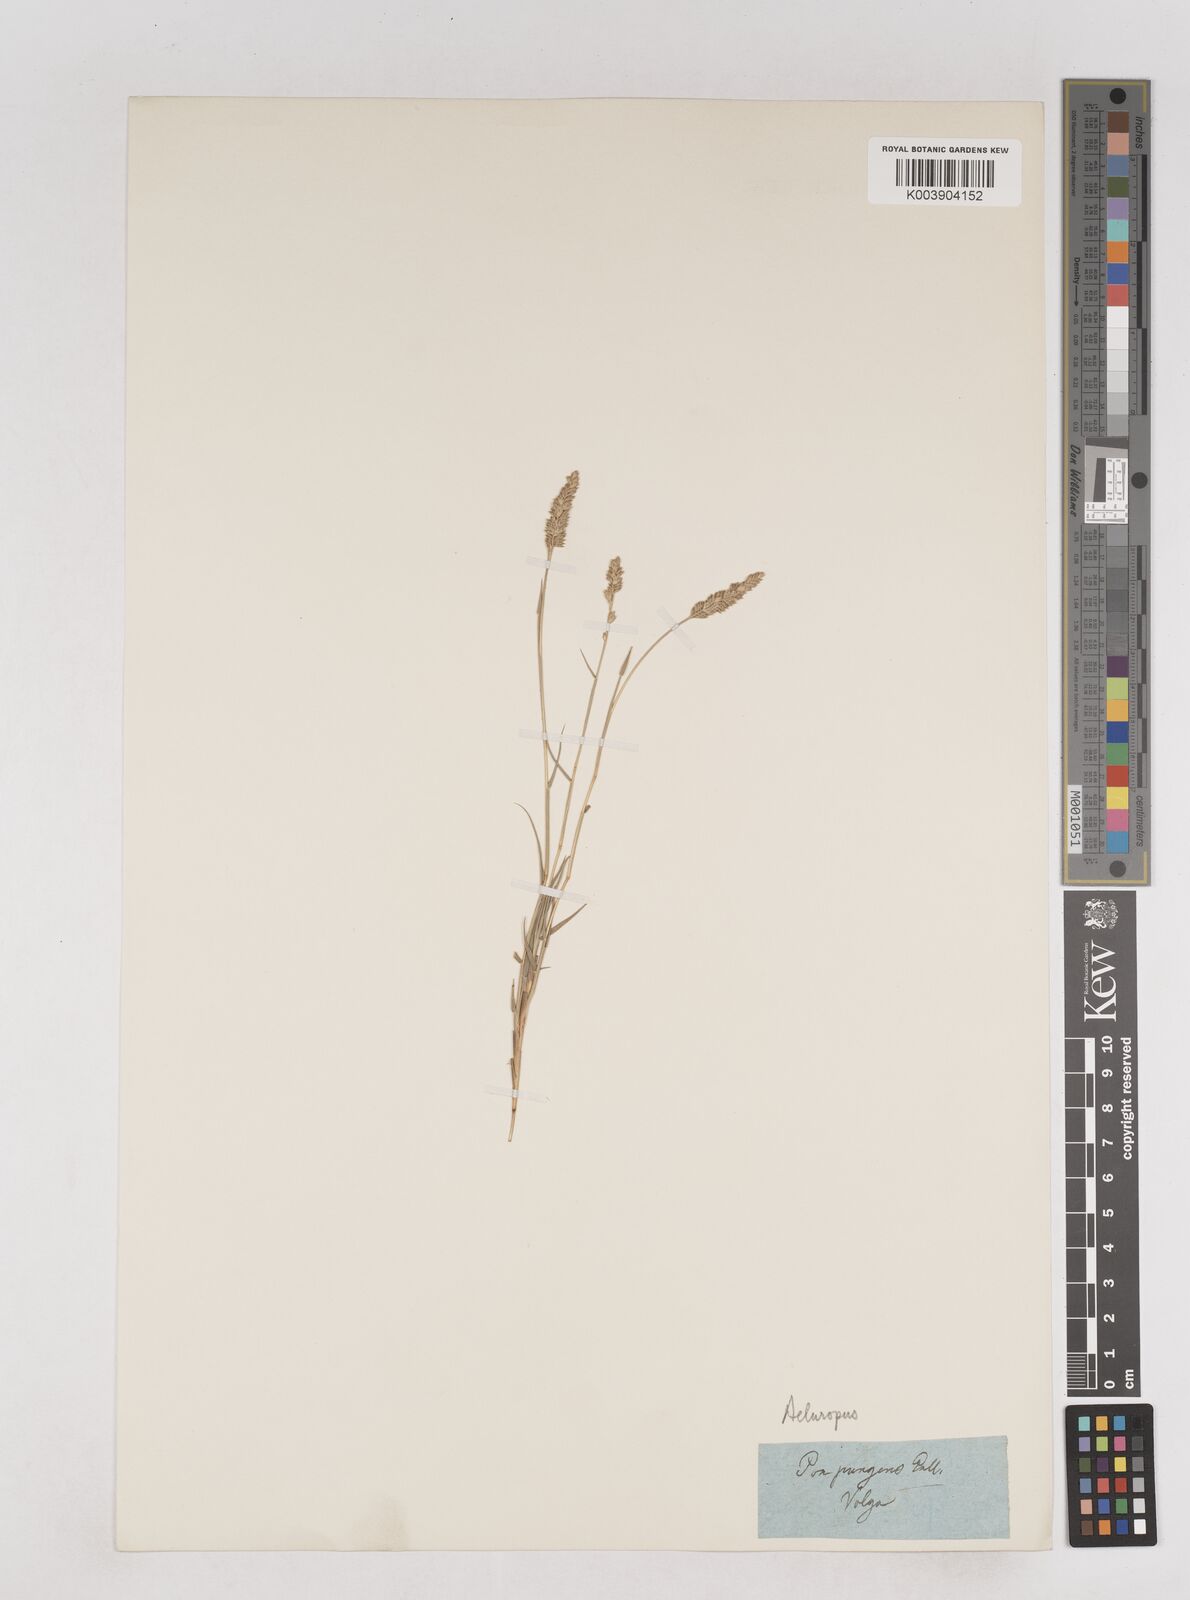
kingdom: Plantae
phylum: Tracheophyta
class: Liliopsida
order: Poales
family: Poaceae
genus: Aeluropus
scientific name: Aeluropus littoralis
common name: Indian walnut
